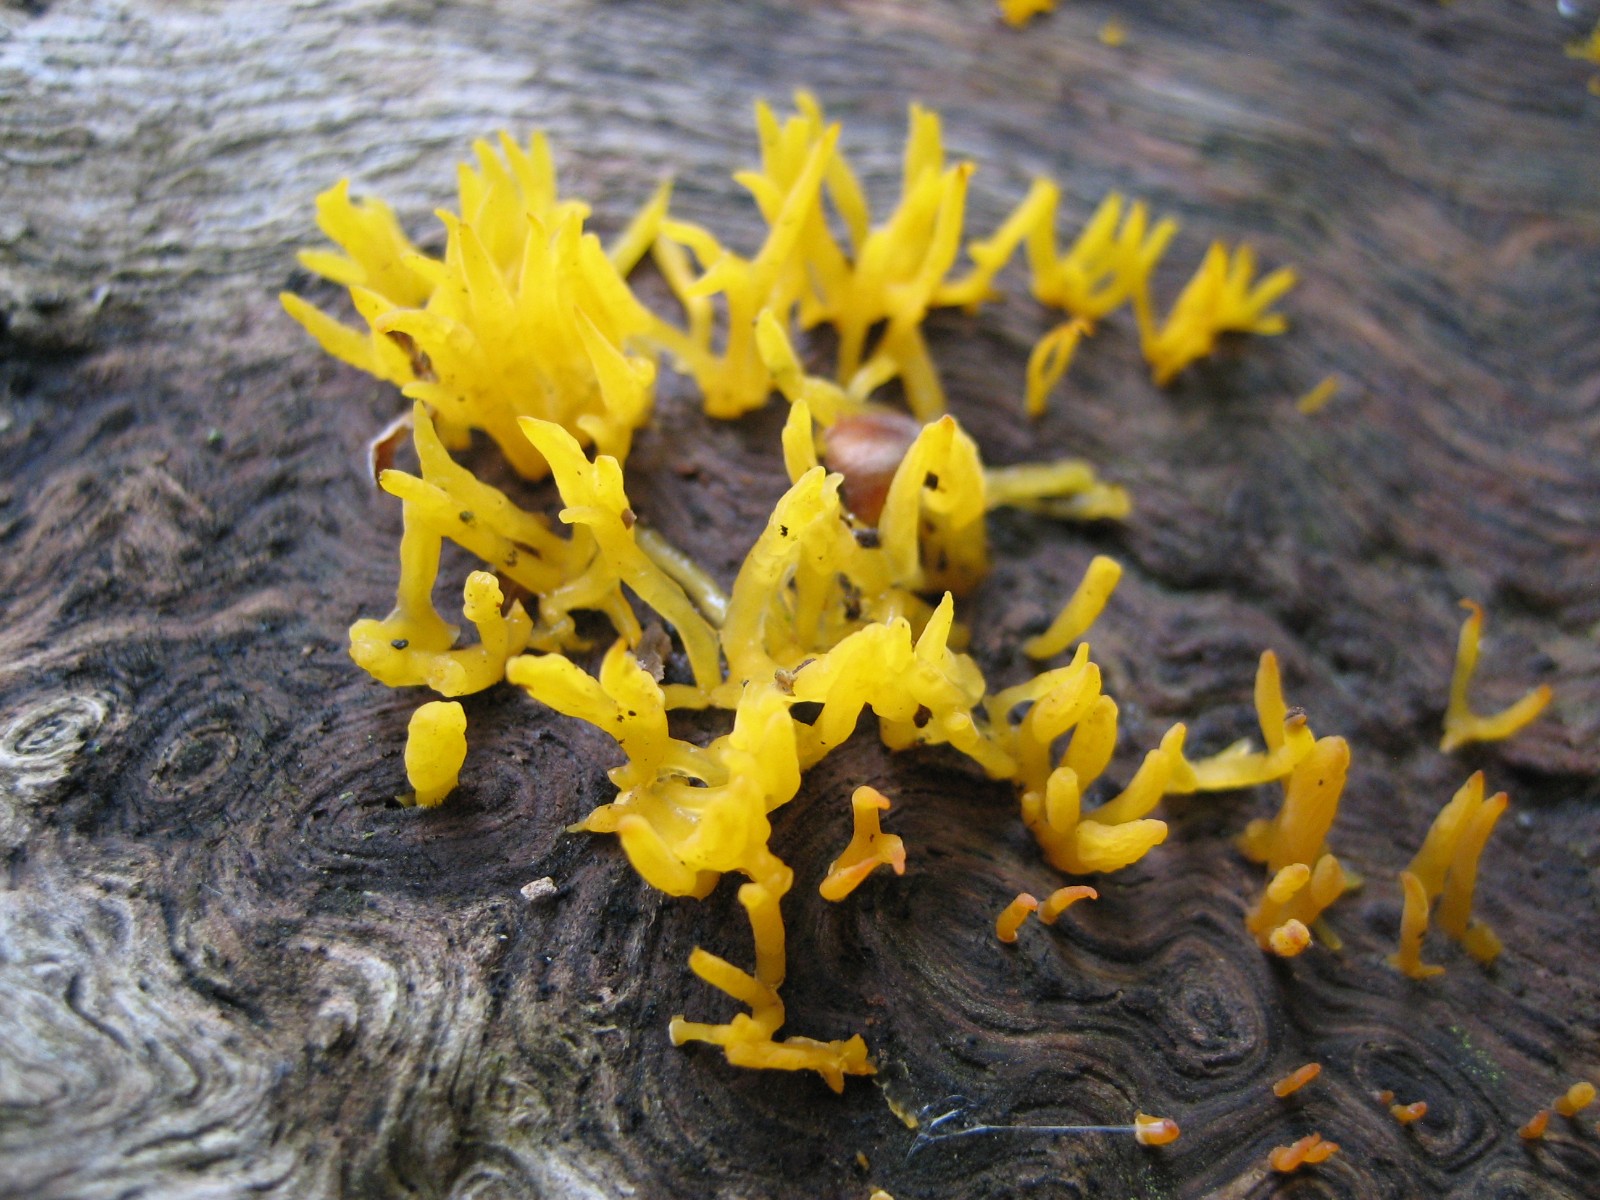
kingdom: Fungi
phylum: Basidiomycota
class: Dacrymycetes
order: Dacrymycetales
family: Dacrymycetaceae
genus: Calocera
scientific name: Calocera cornea
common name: liden guldgaffel
